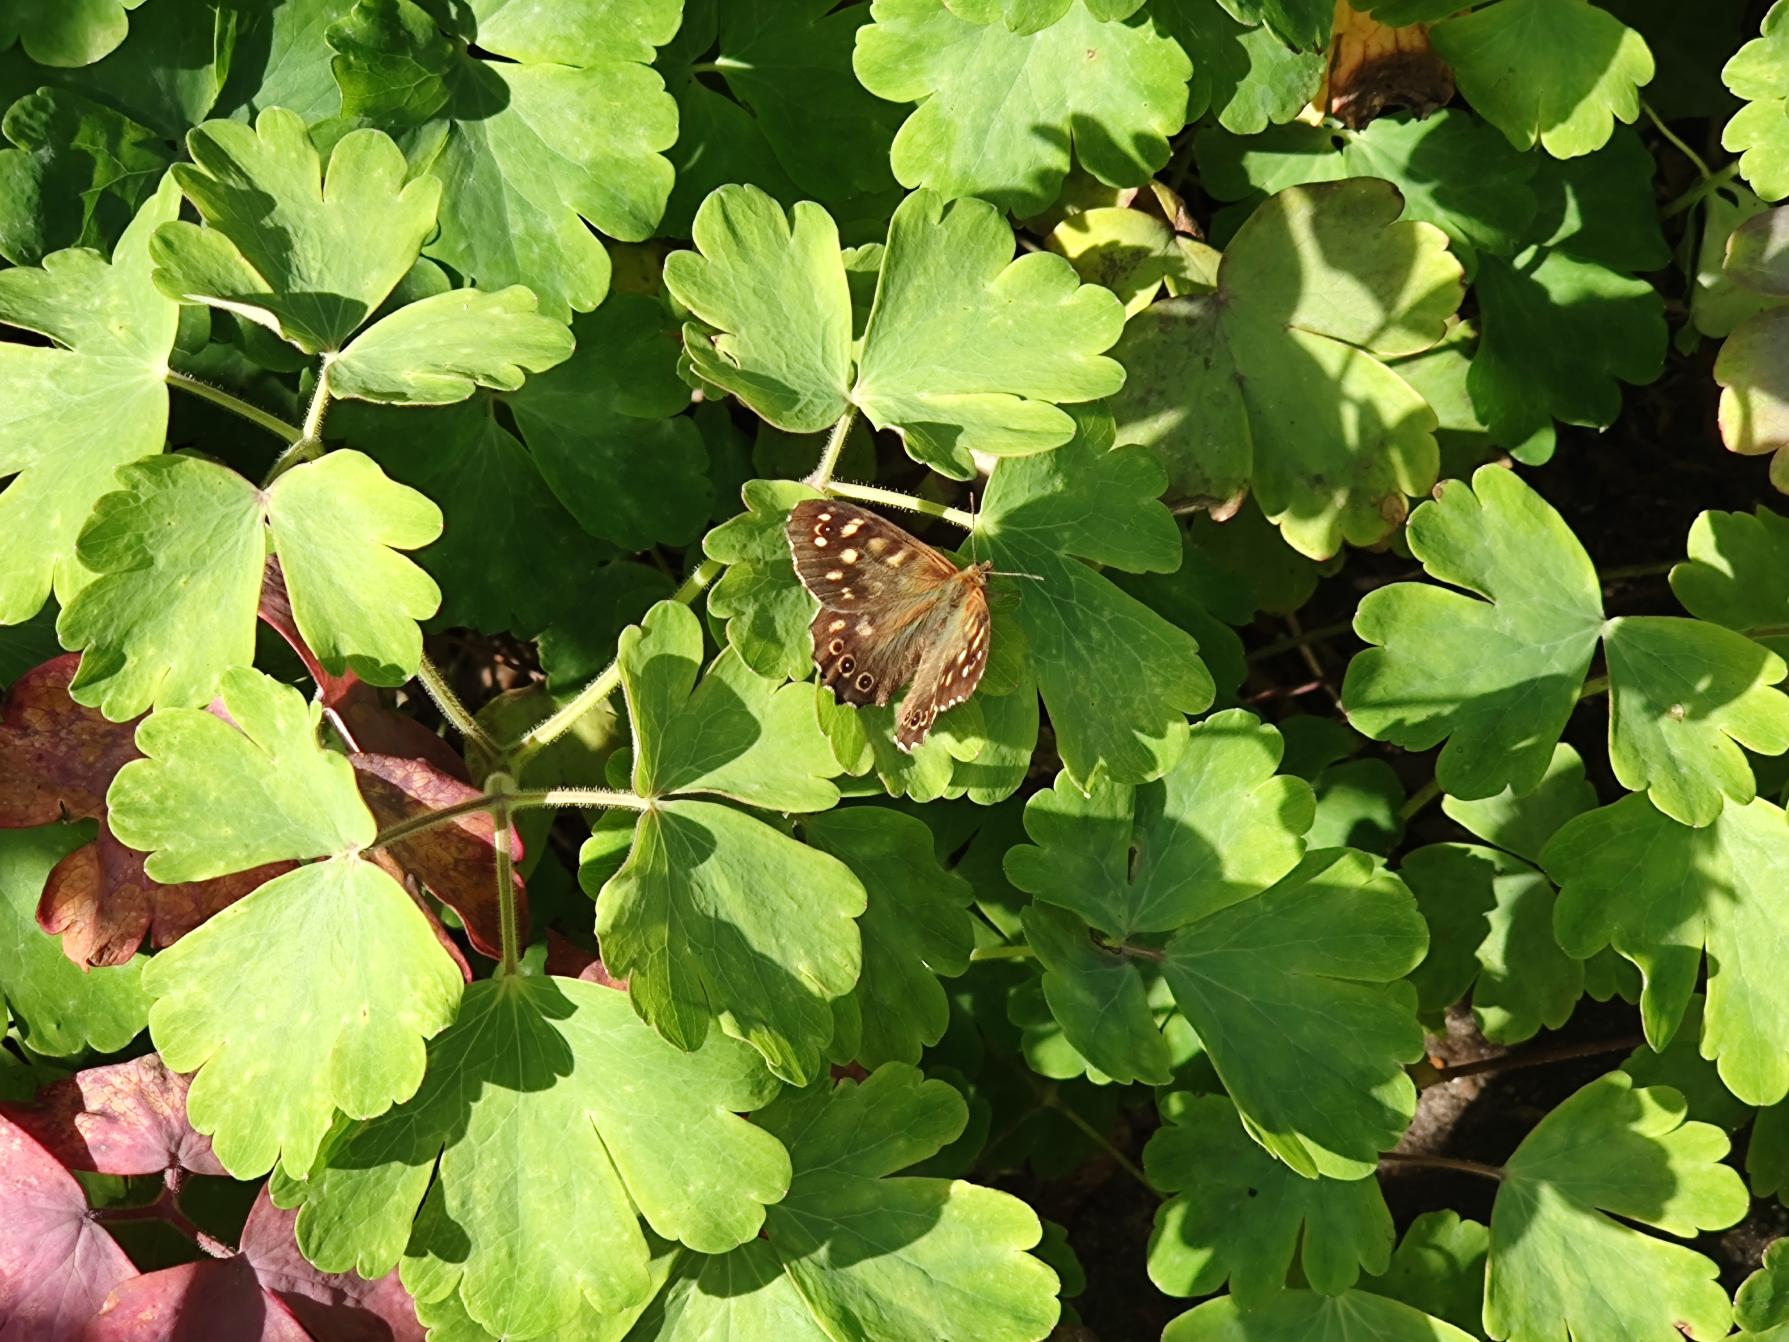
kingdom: Animalia
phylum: Arthropoda
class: Insecta
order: Lepidoptera
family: Nymphalidae
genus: Pararge
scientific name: Pararge aegeria
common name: Skovrandøje
